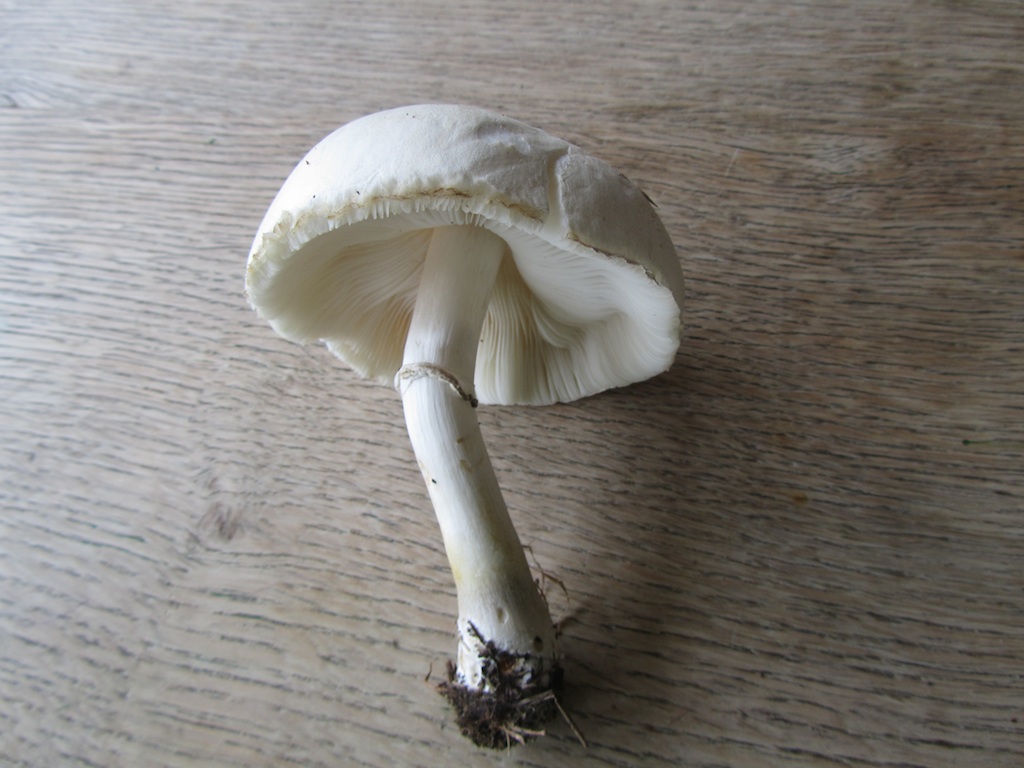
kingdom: Fungi
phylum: Basidiomycota
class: Agaricomycetes
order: Agaricales
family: Agaricaceae
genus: Leucoagaricus
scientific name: Leucoagaricus leucothites
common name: rosabladet silkehat
